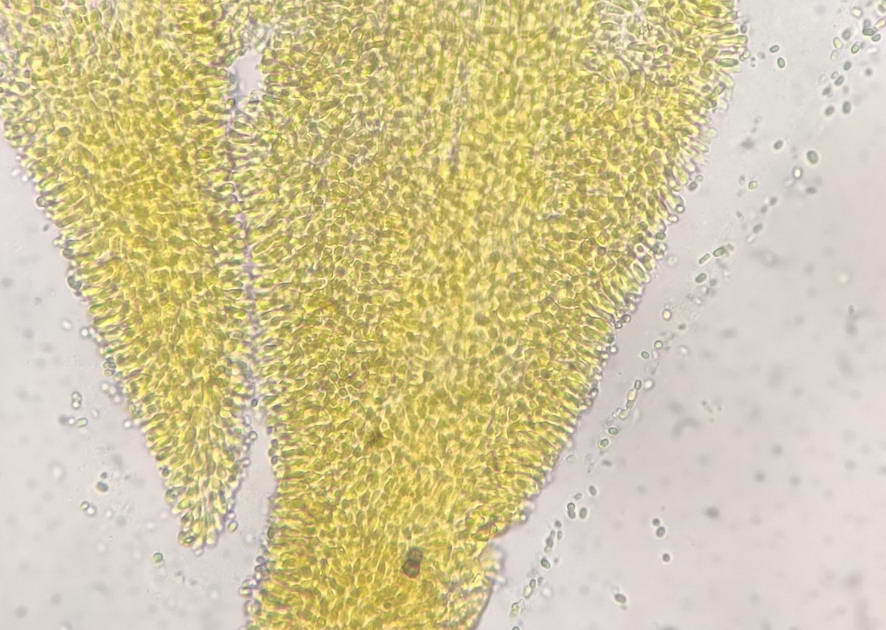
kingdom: Fungi
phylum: Basidiomycota
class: Agaricomycetes
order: Agaricales
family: Clavariaceae
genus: Mucronella
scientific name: Mucronella calva
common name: hvid hængepig
